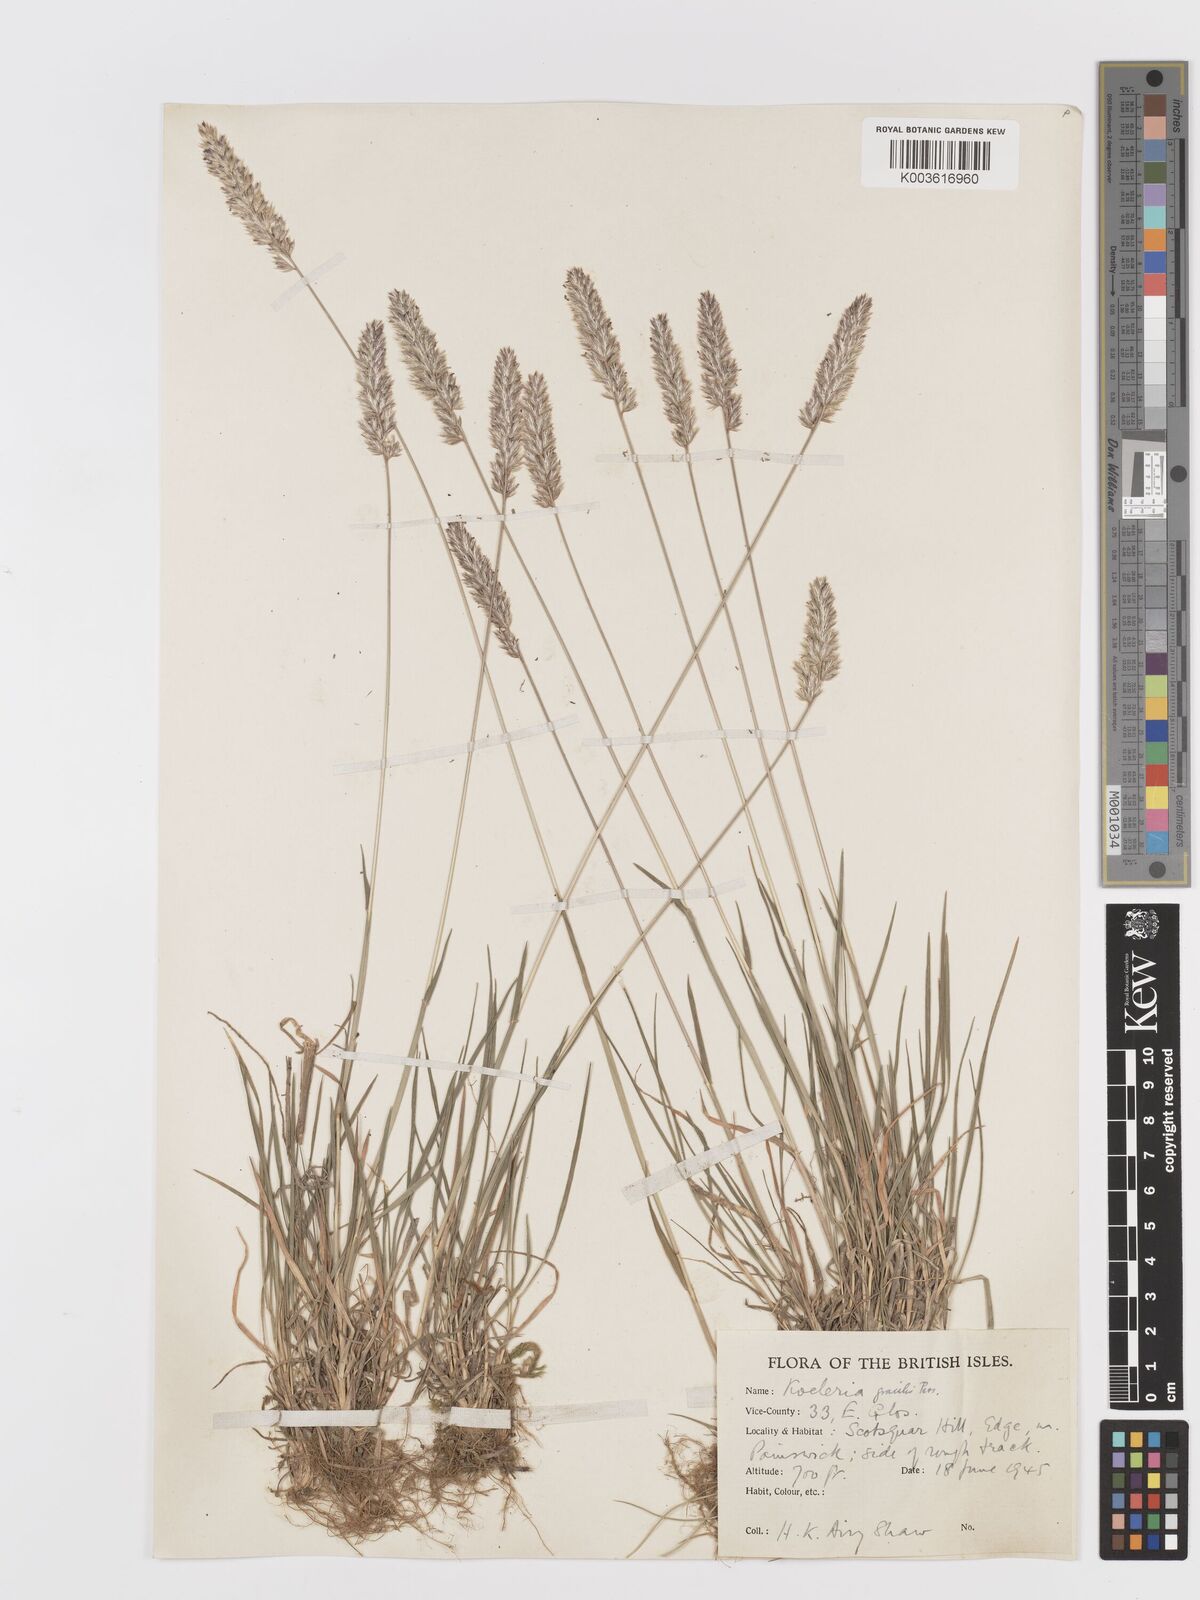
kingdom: Plantae
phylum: Tracheophyta
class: Liliopsida
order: Poales
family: Poaceae
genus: Koeleria
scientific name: Koeleria macrantha
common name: Crested hair-grass
